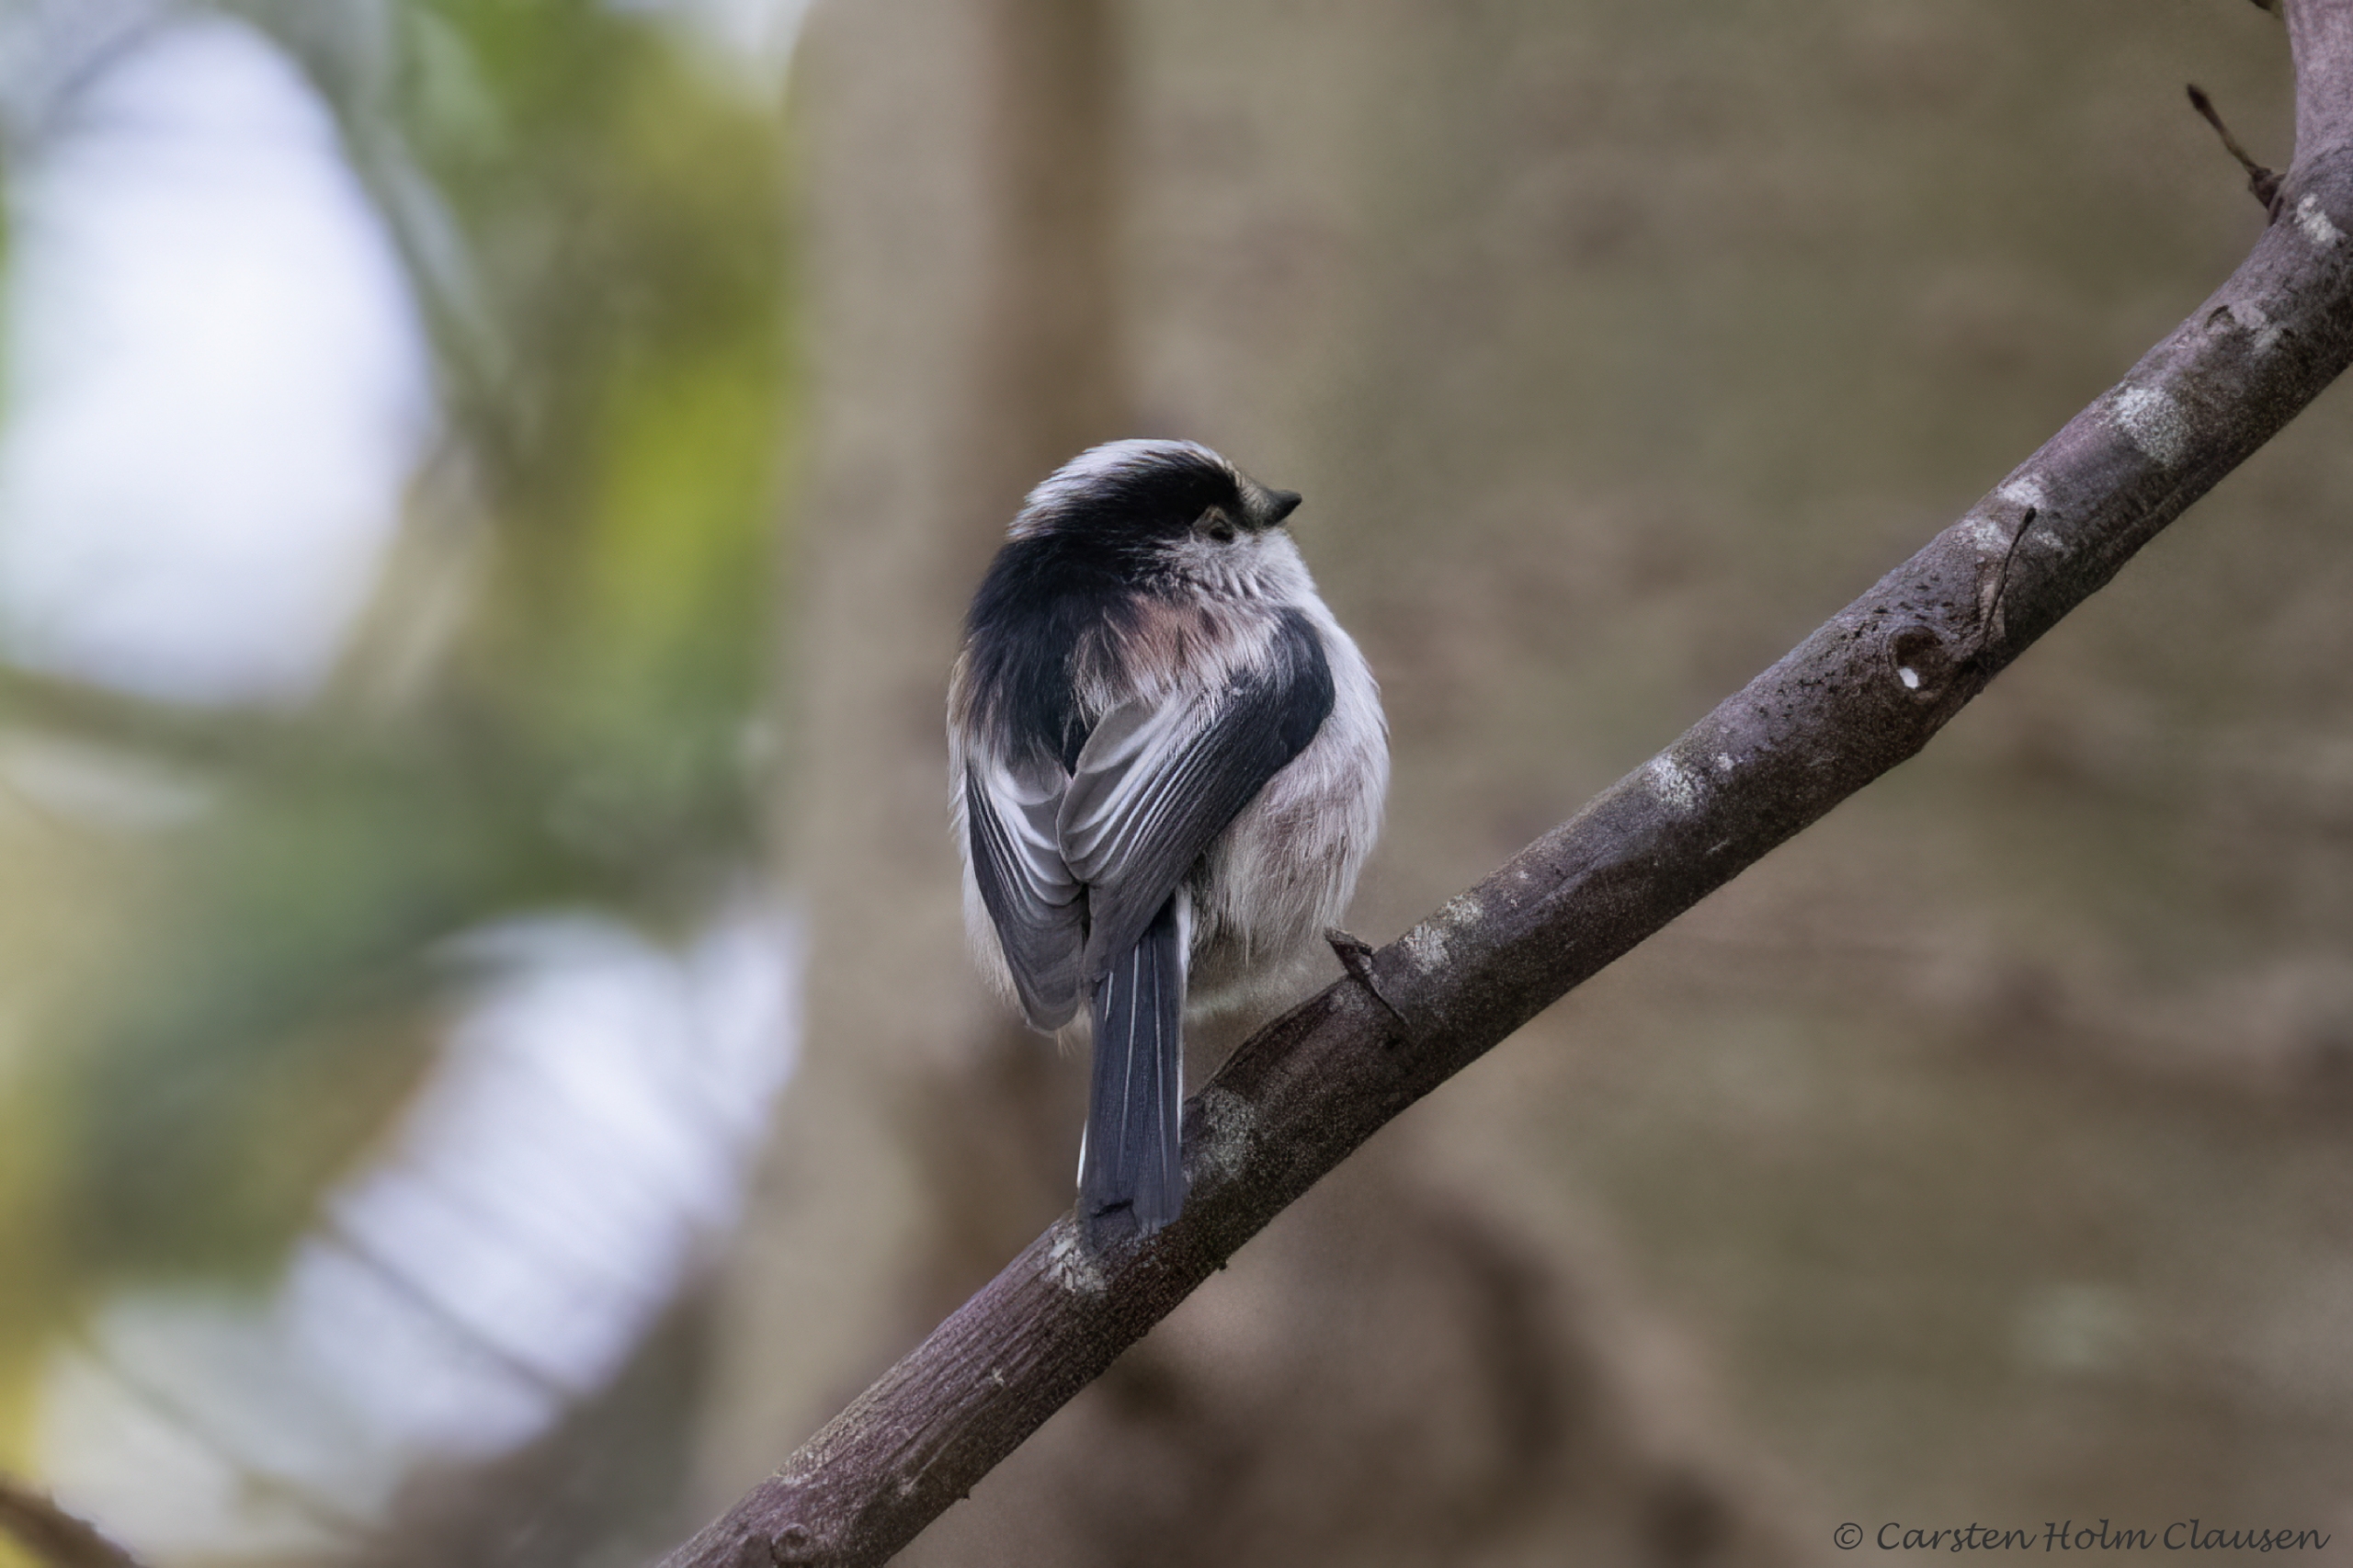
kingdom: Animalia
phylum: Chordata
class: Aves
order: Passeriformes
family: Aegithalidae
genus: Aegithalos
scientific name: Aegithalos caudatus
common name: Sydlig halemejse
